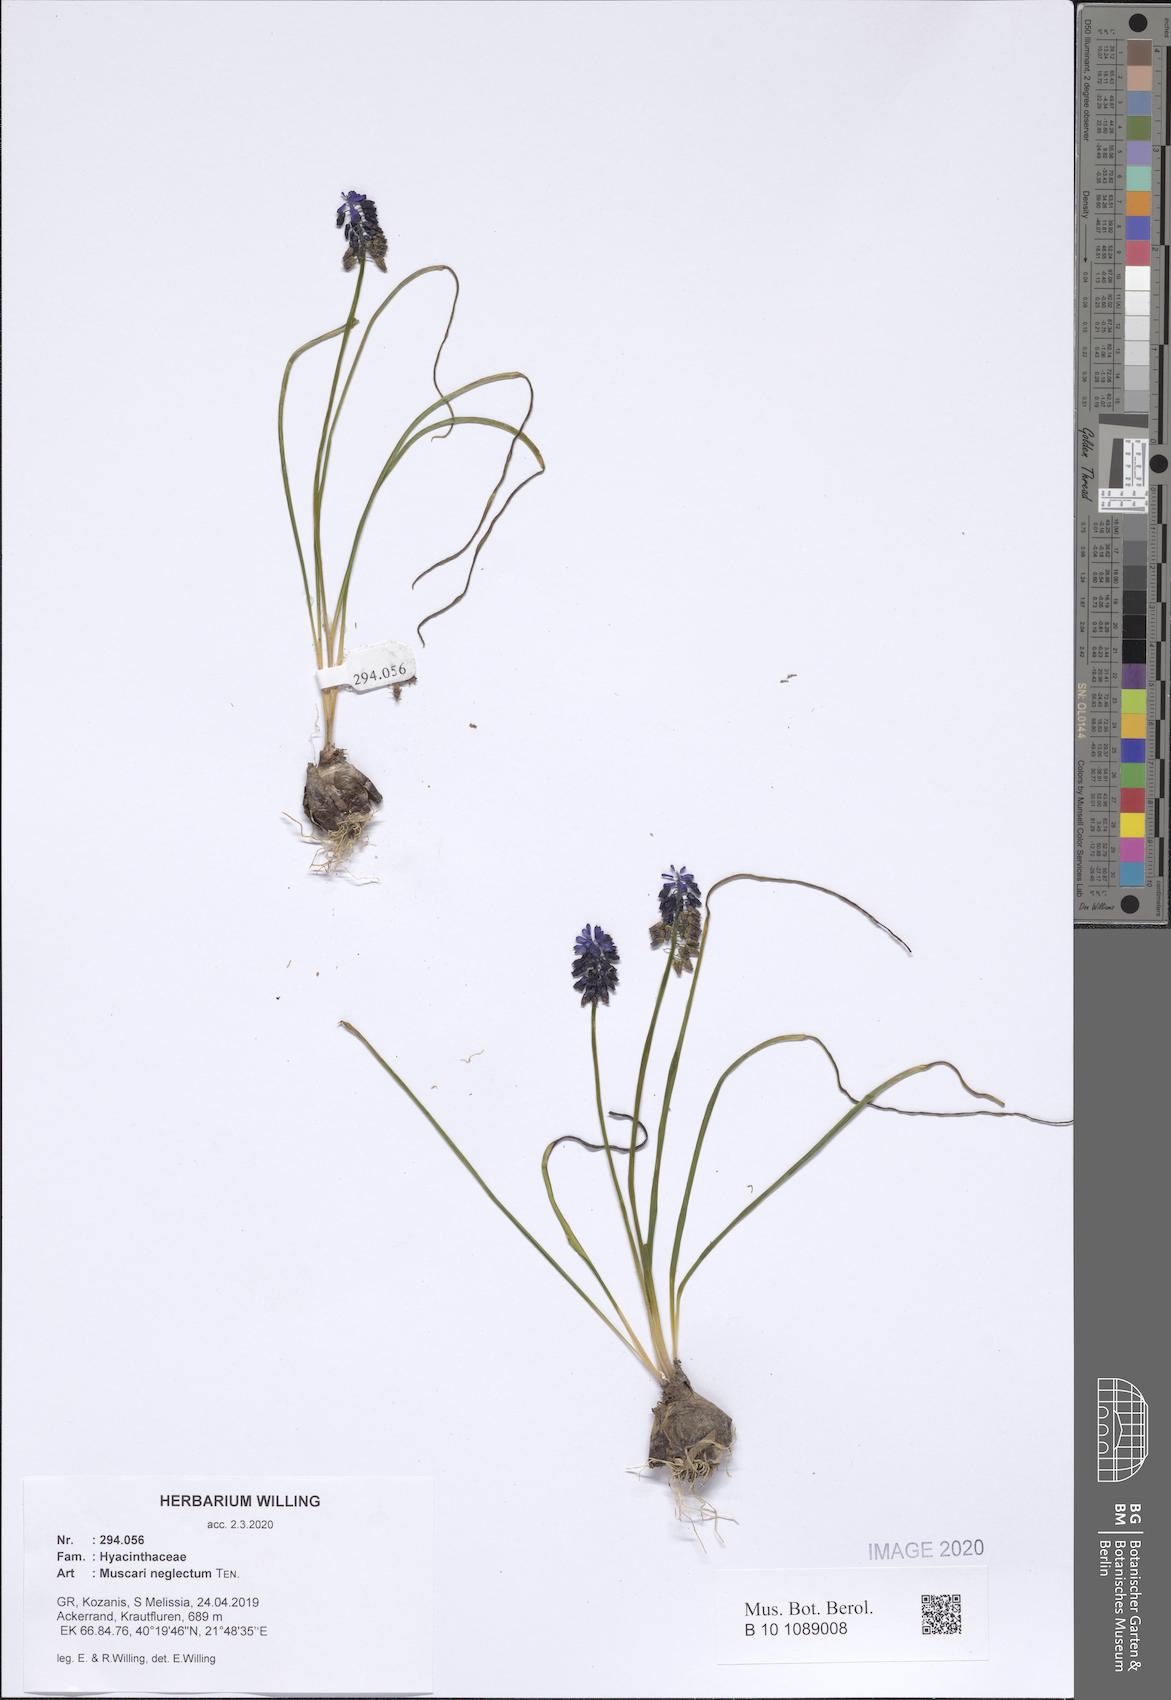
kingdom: Plantae
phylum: Tracheophyta
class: Liliopsida
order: Asparagales
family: Asparagaceae
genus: Muscari
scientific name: Muscari neglectum
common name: Grape-hyacinth
